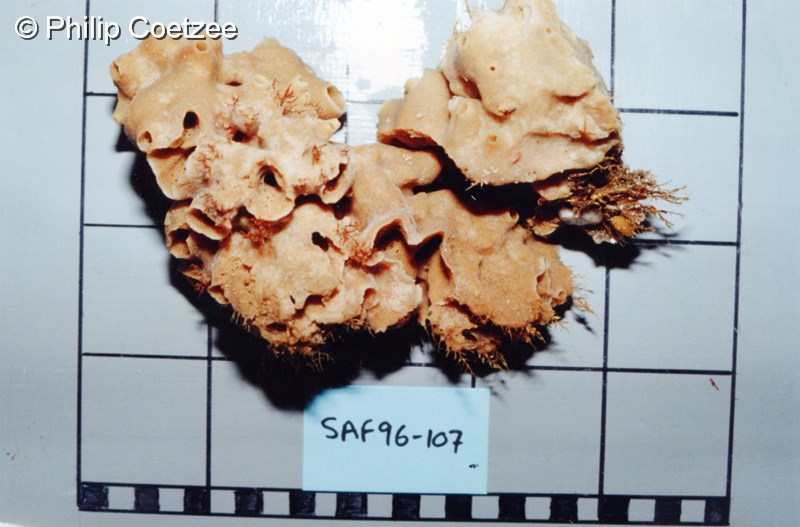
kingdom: Animalia
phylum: Porifera
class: Demospongiae
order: Haplosclerida
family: Chalinidae
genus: Haliclona
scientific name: Haliclona stilensis
